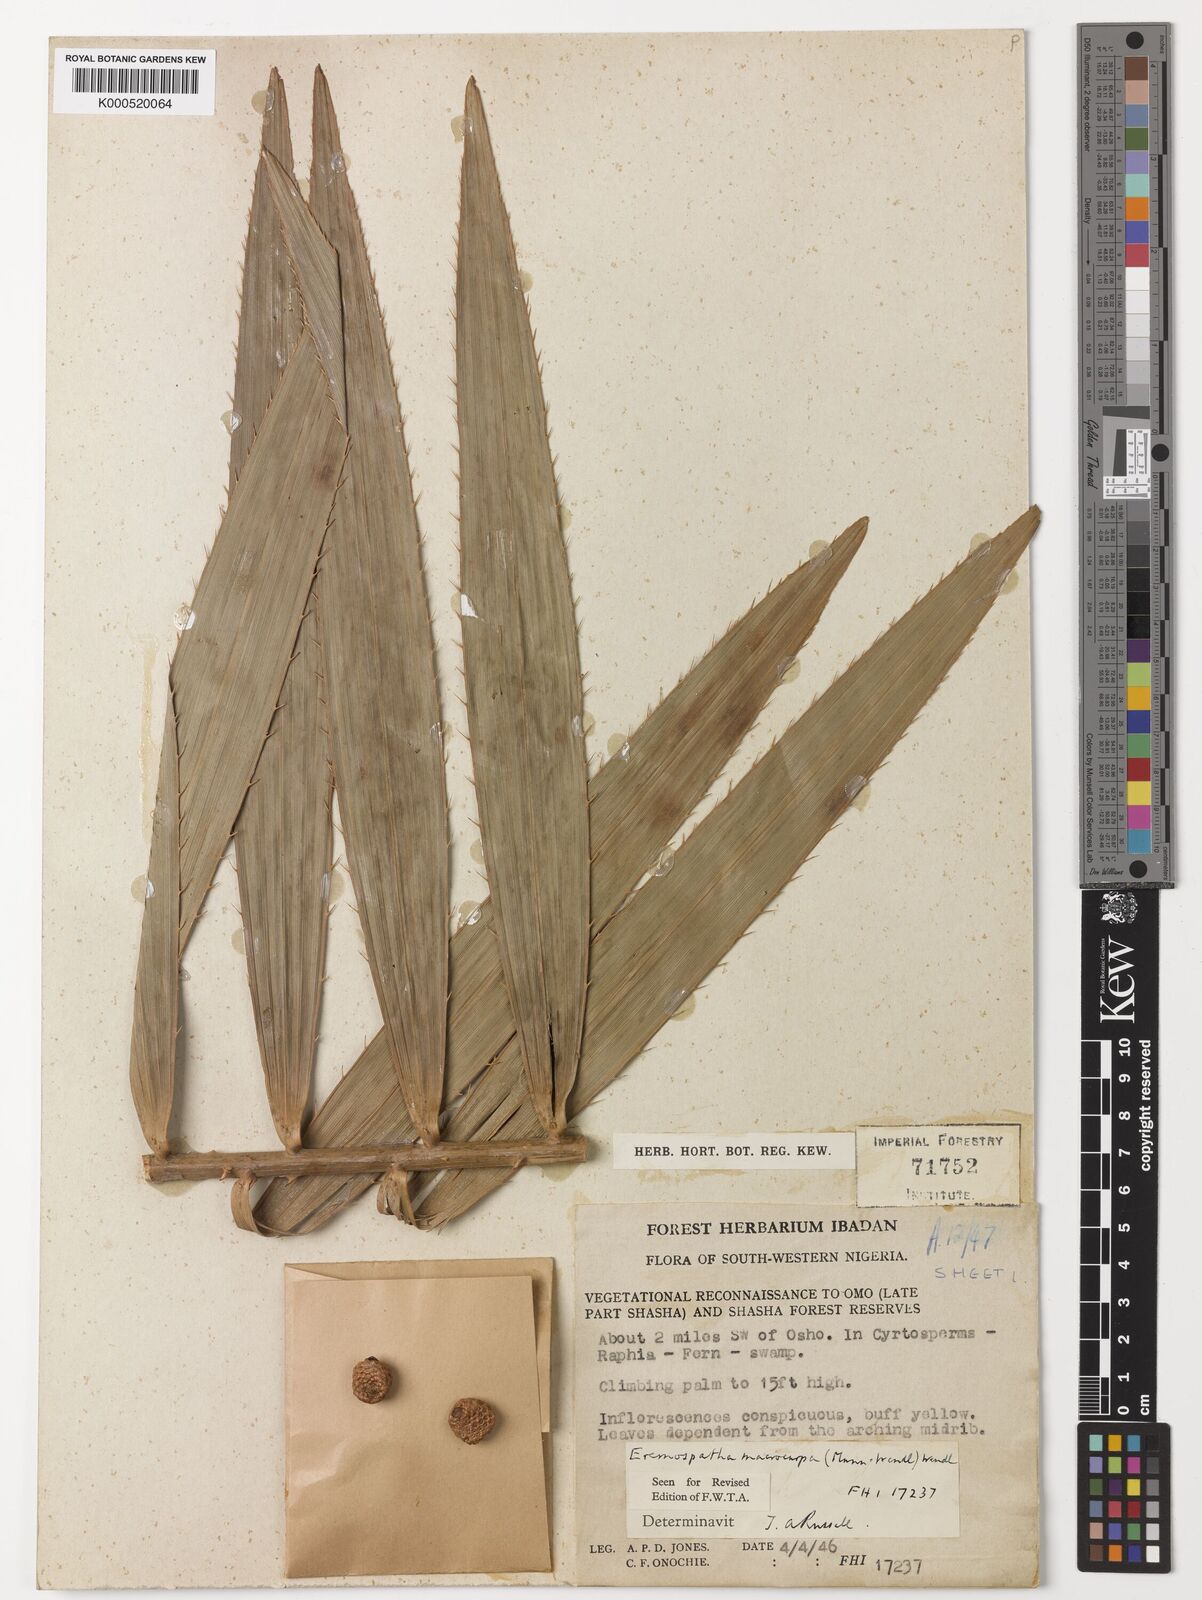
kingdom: Plantae
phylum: Tracheophyta
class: Liliopsida
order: Arecales
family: Arecaceae
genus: Eremospatha
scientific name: Eremospatha
